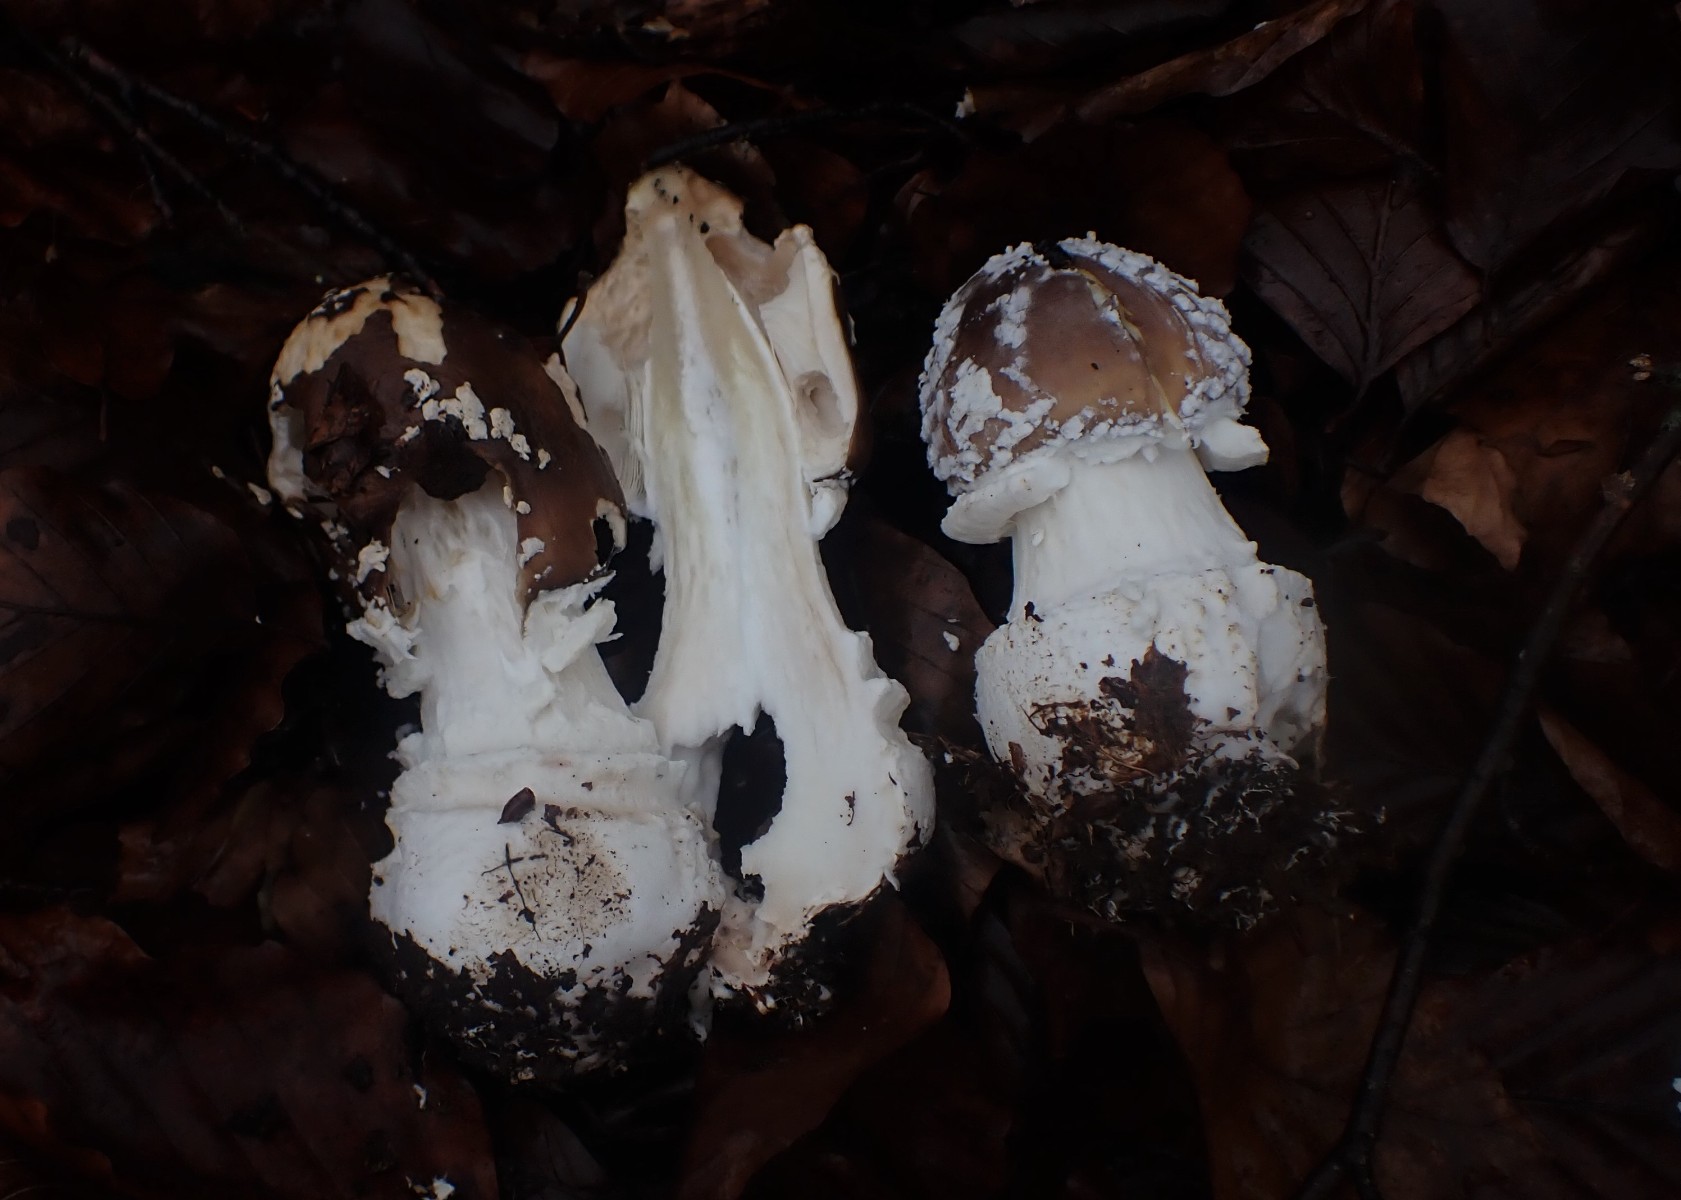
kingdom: Fungi
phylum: Basidiomycota
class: Agaricomycetes
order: Agaricales
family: Amanitaceae
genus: Amanita
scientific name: Amanita pantherina
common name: panter-fluesvamp
